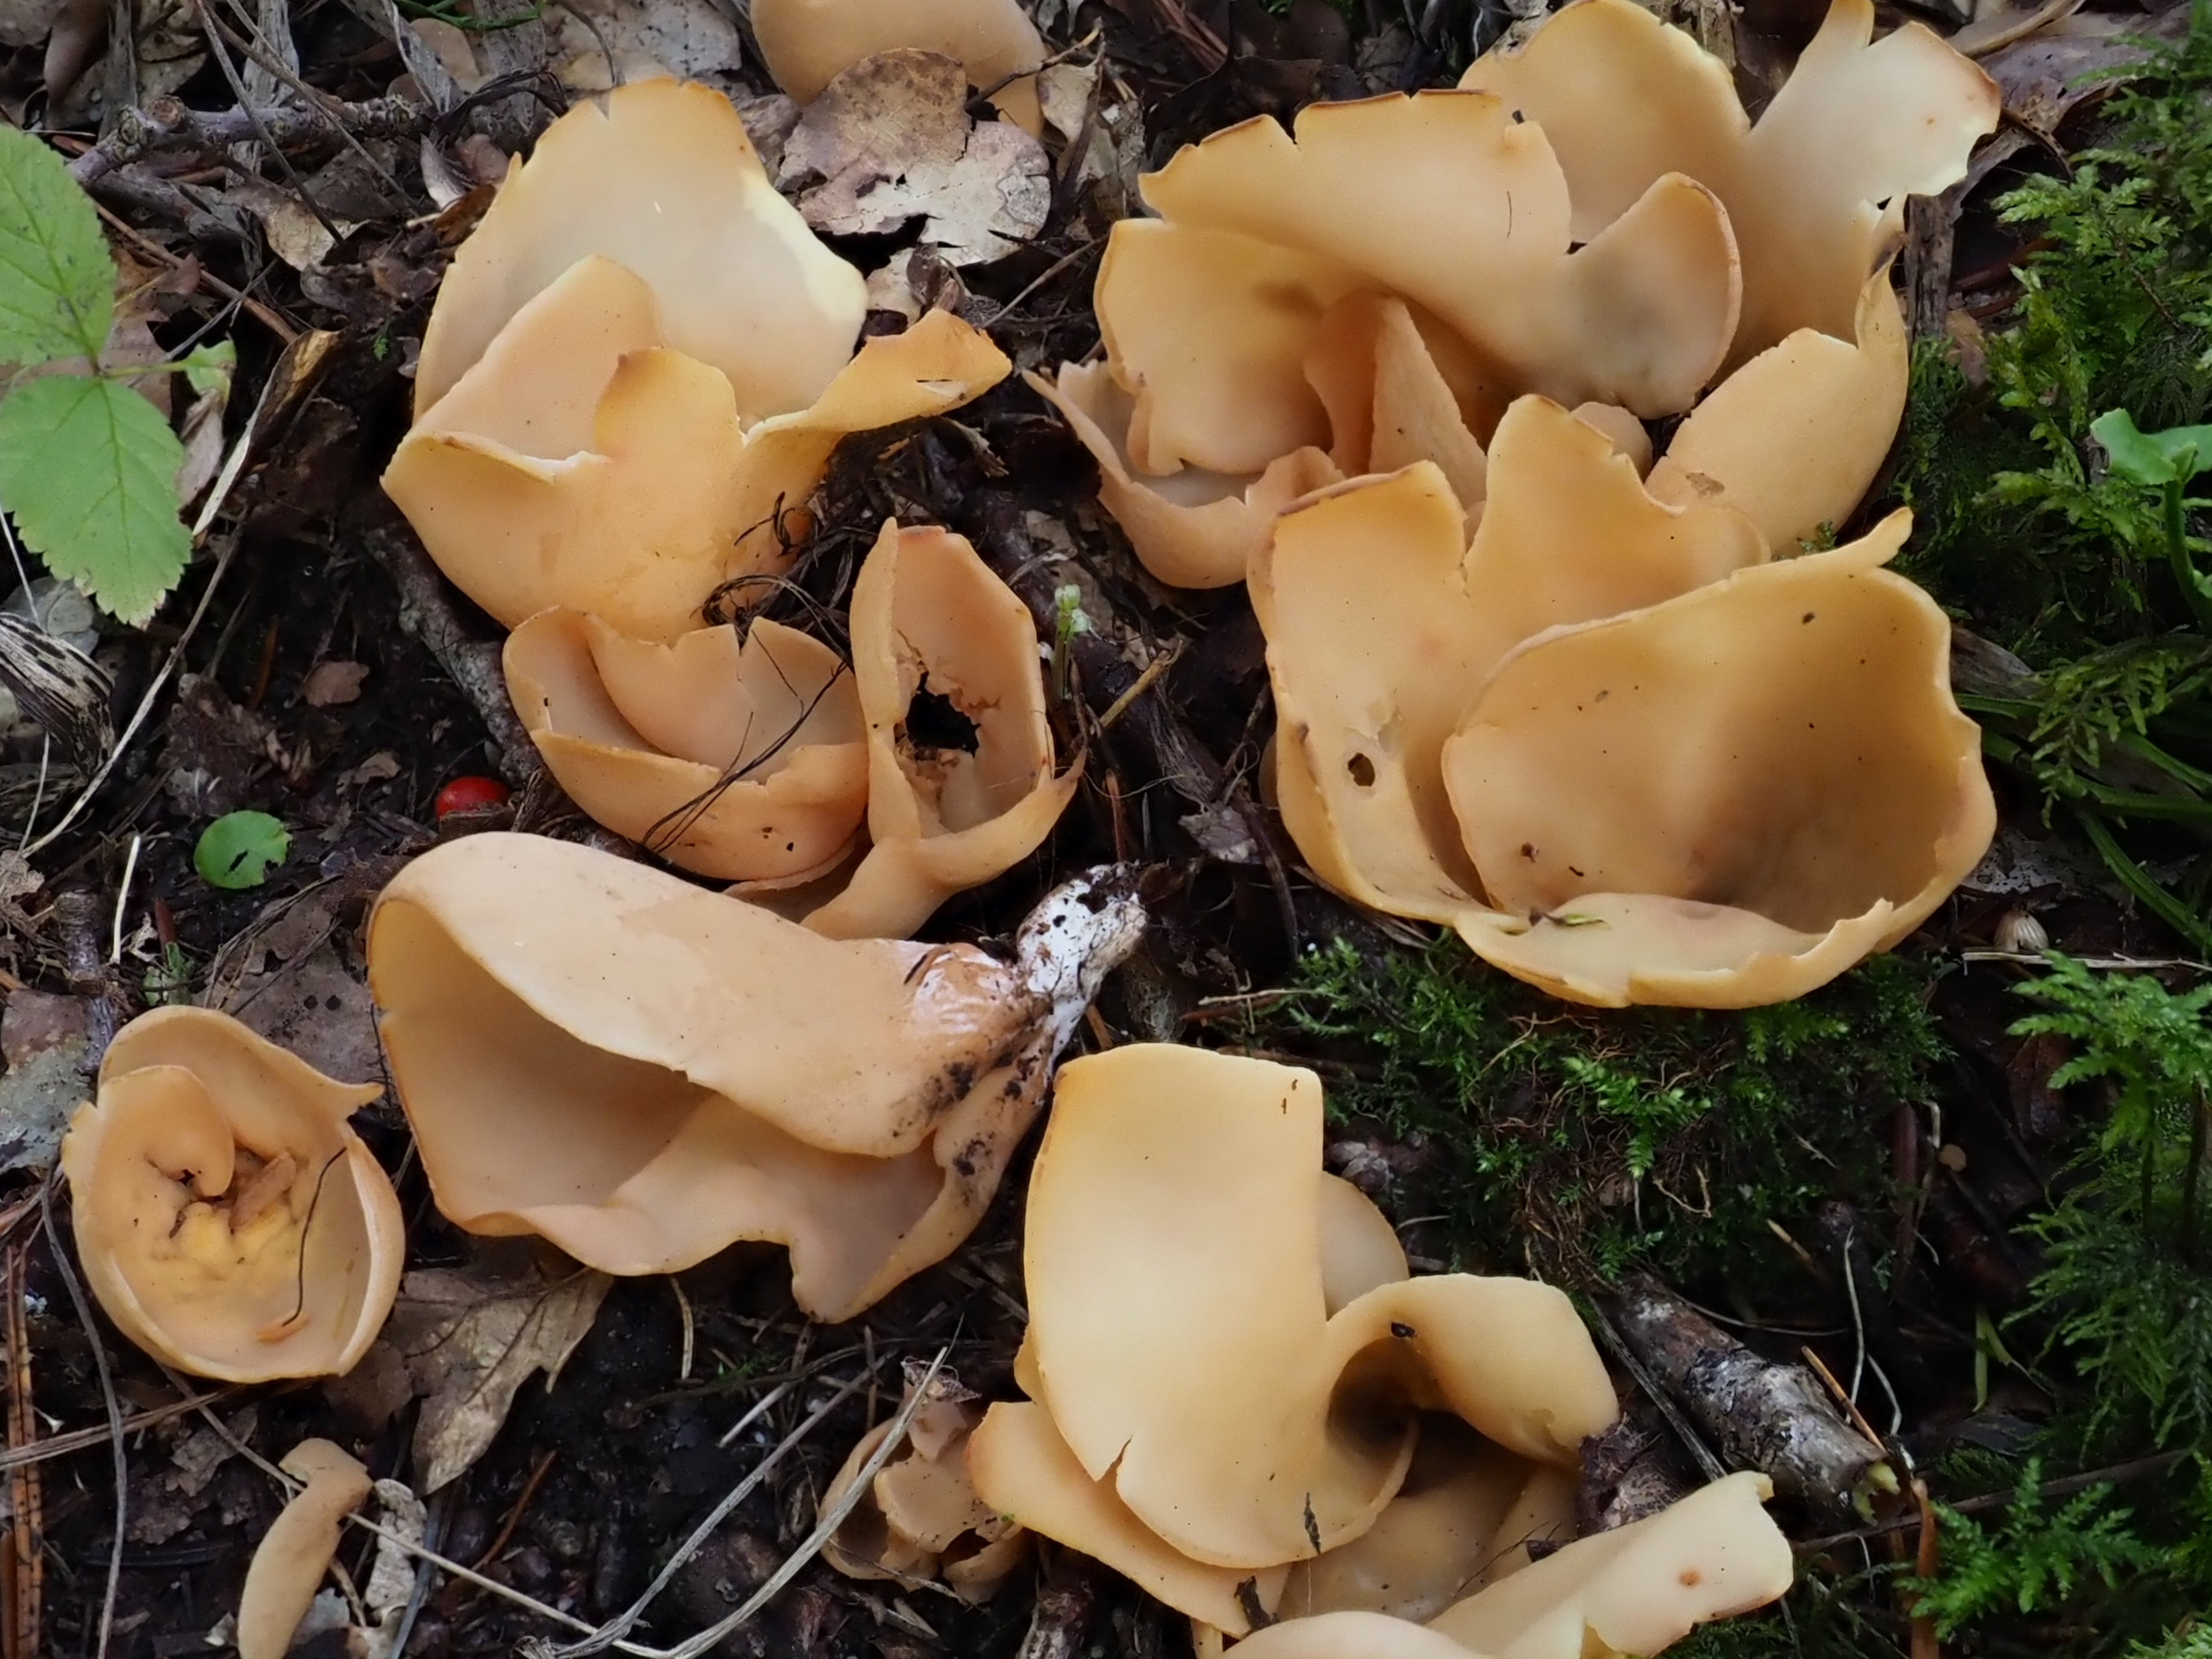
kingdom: Fungi
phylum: Ascomycota
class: Pezizomycetes
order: Pezizales
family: Otideaceae
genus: Otidea
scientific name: Otidea
